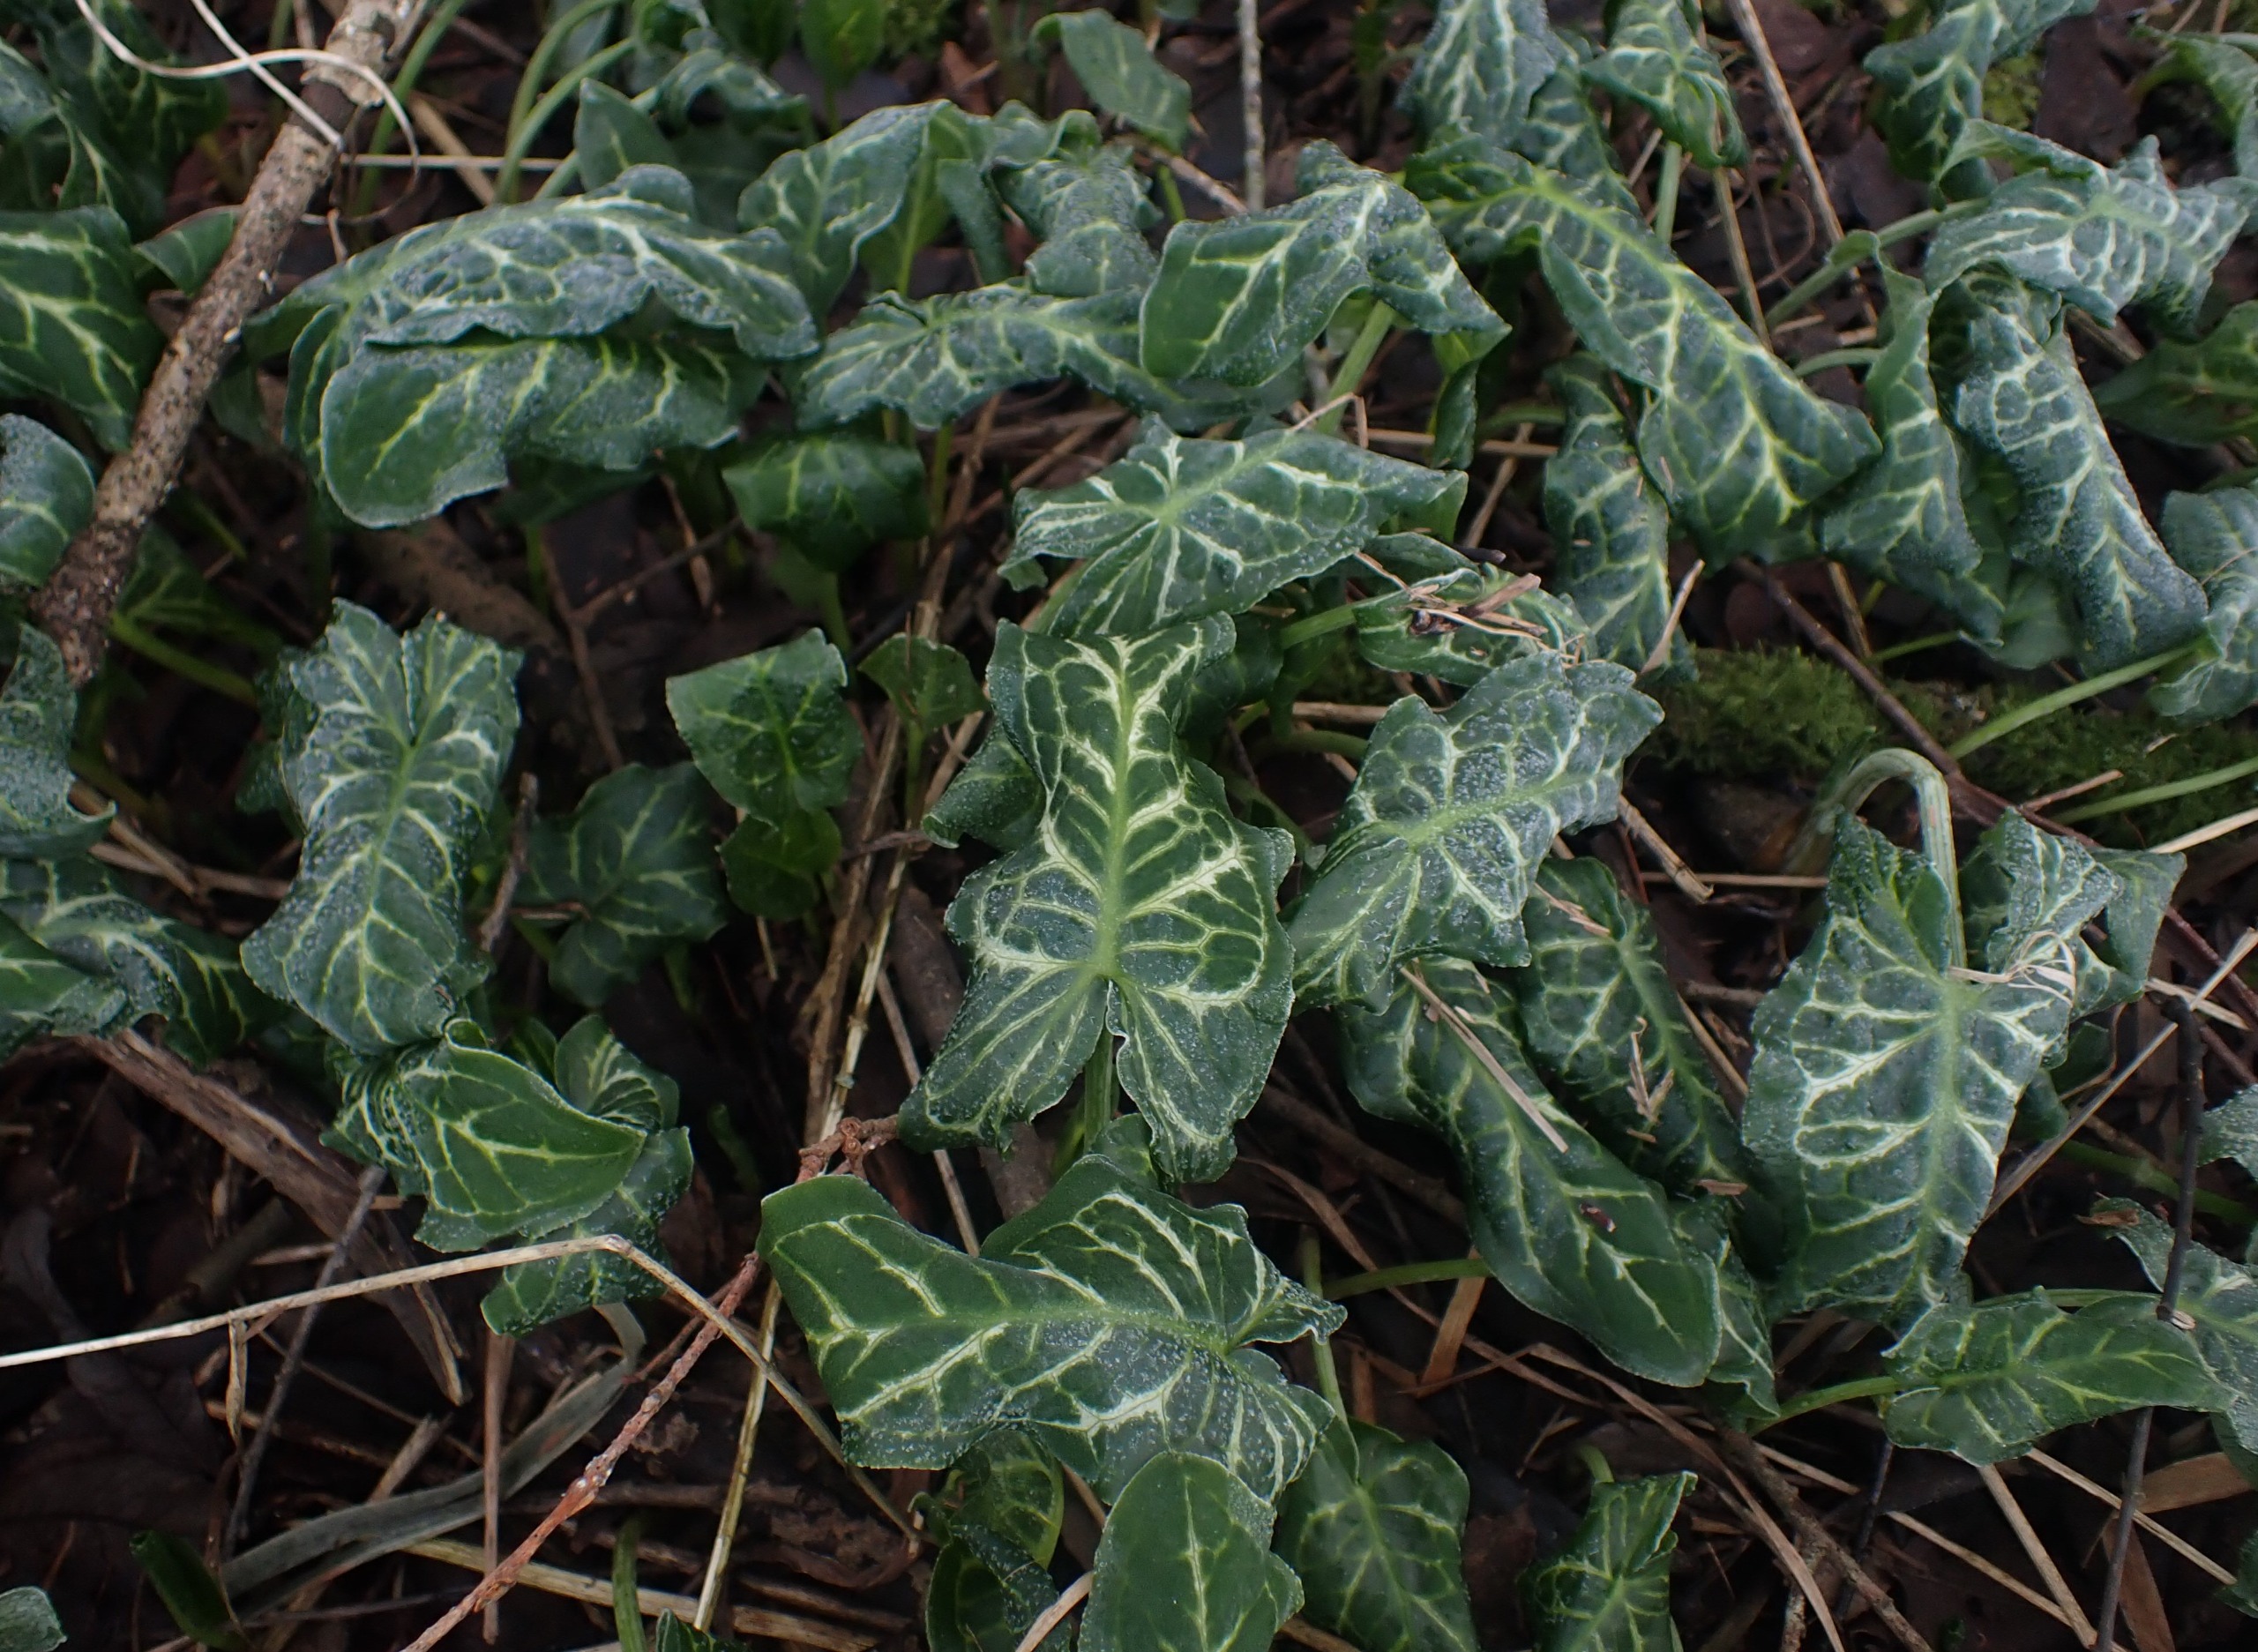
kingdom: Plantae
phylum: Tracheophyta
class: Liliopsida
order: Alismatales
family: Araceae
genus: Arum
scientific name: Arum italicum
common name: Italiensk arum
